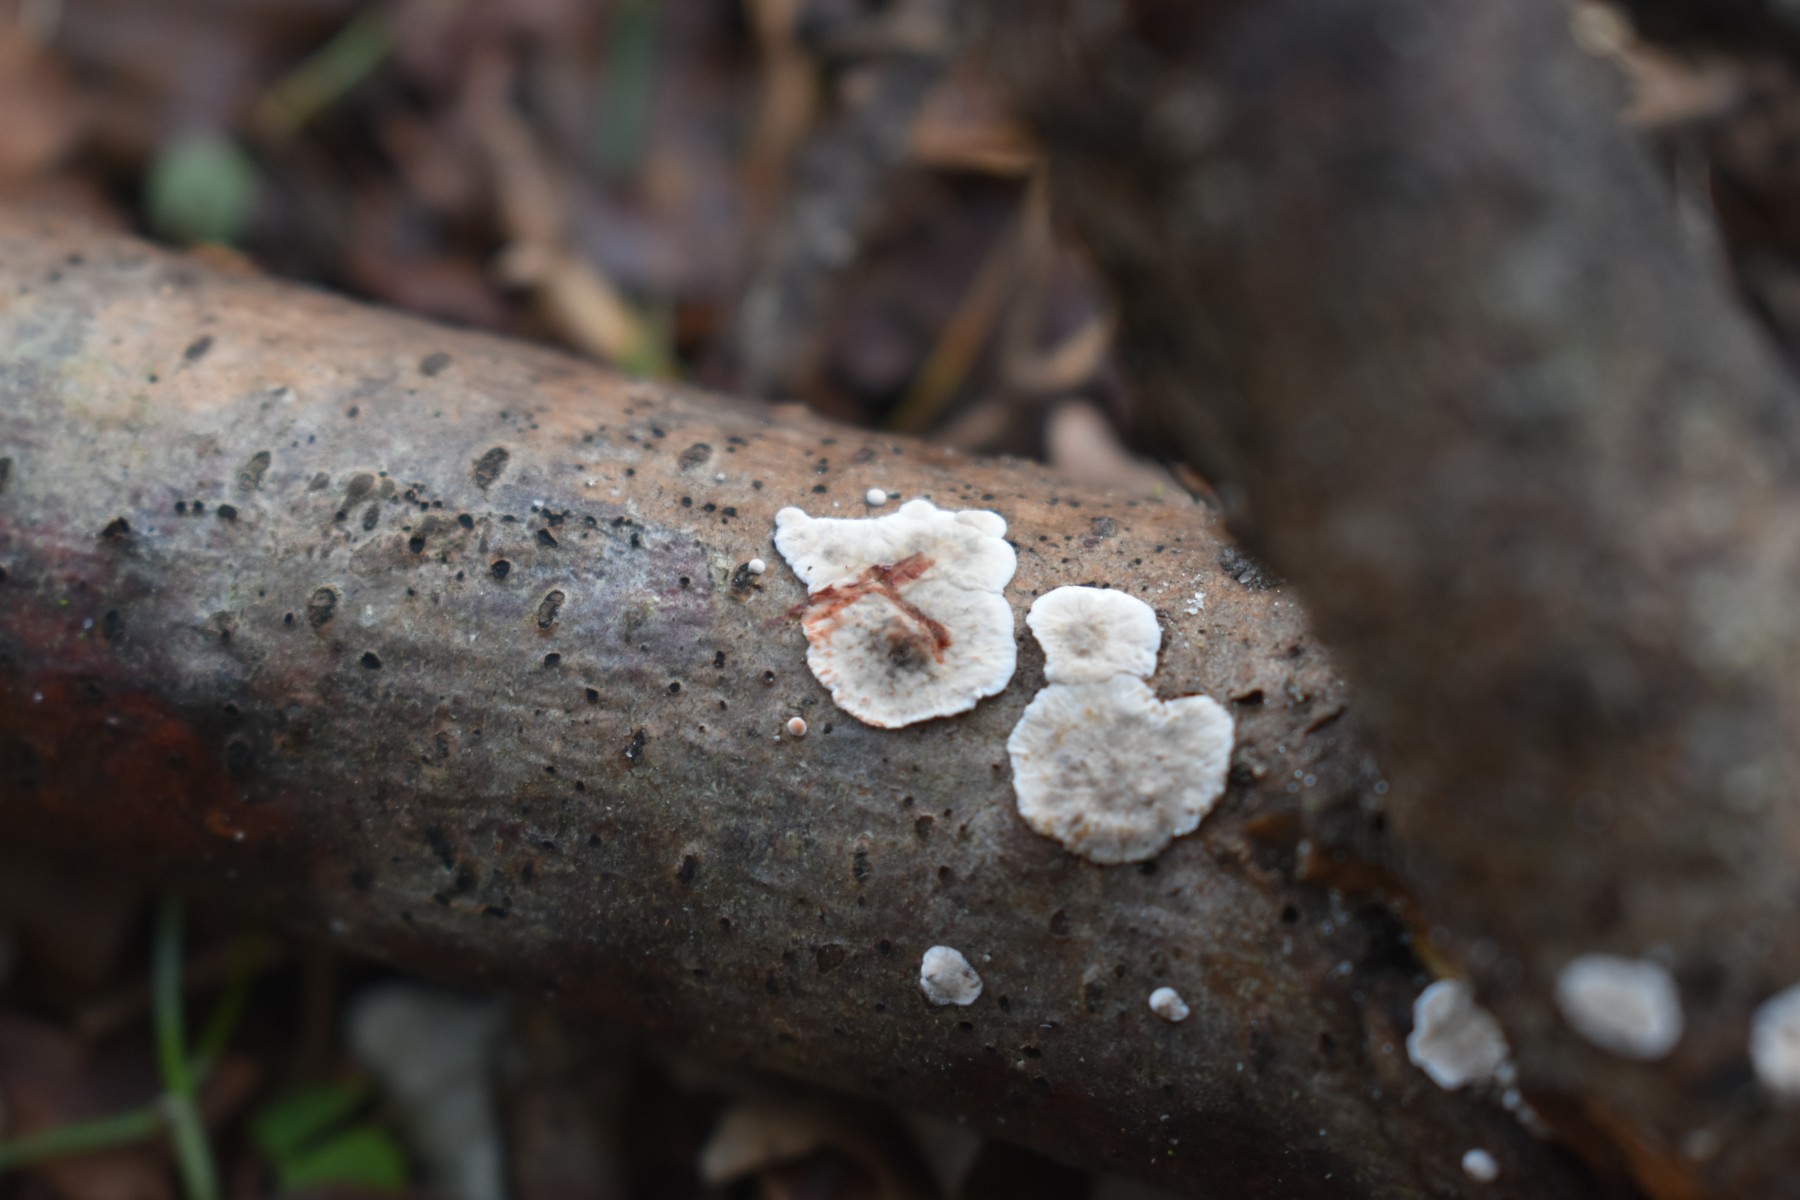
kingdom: Fungi
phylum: Basidiomycota
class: Agaricomycetes
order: Russulales
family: Stereaceae
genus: Stereum
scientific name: Stereum sanguinolentum
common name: blødende lædersvamp
